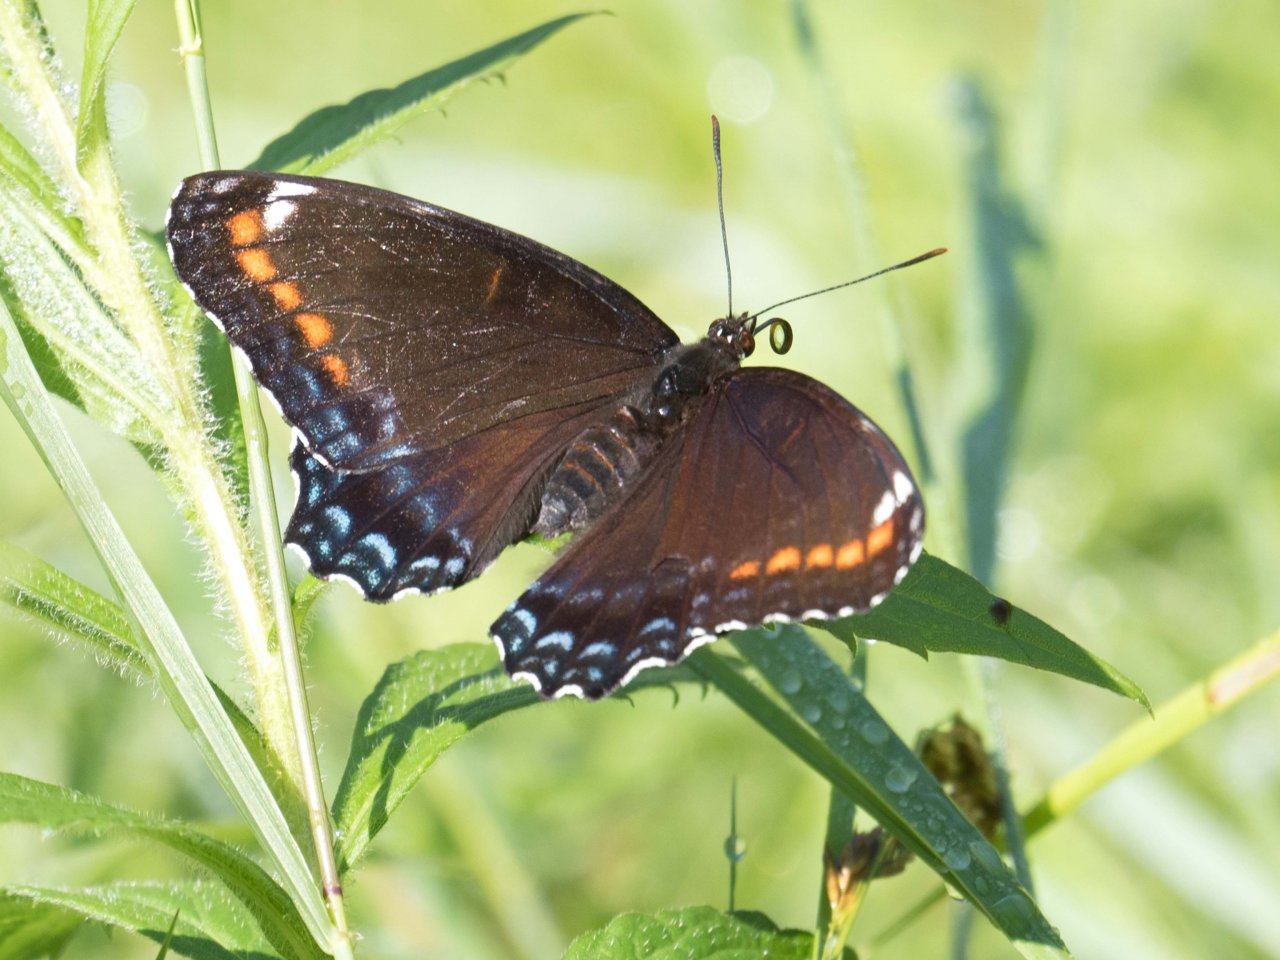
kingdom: Animalia
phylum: Arthropoda
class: Insecta
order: Lepidoptera
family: Nymphalidae
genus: Limenitis
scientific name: Limenitis astyanax
